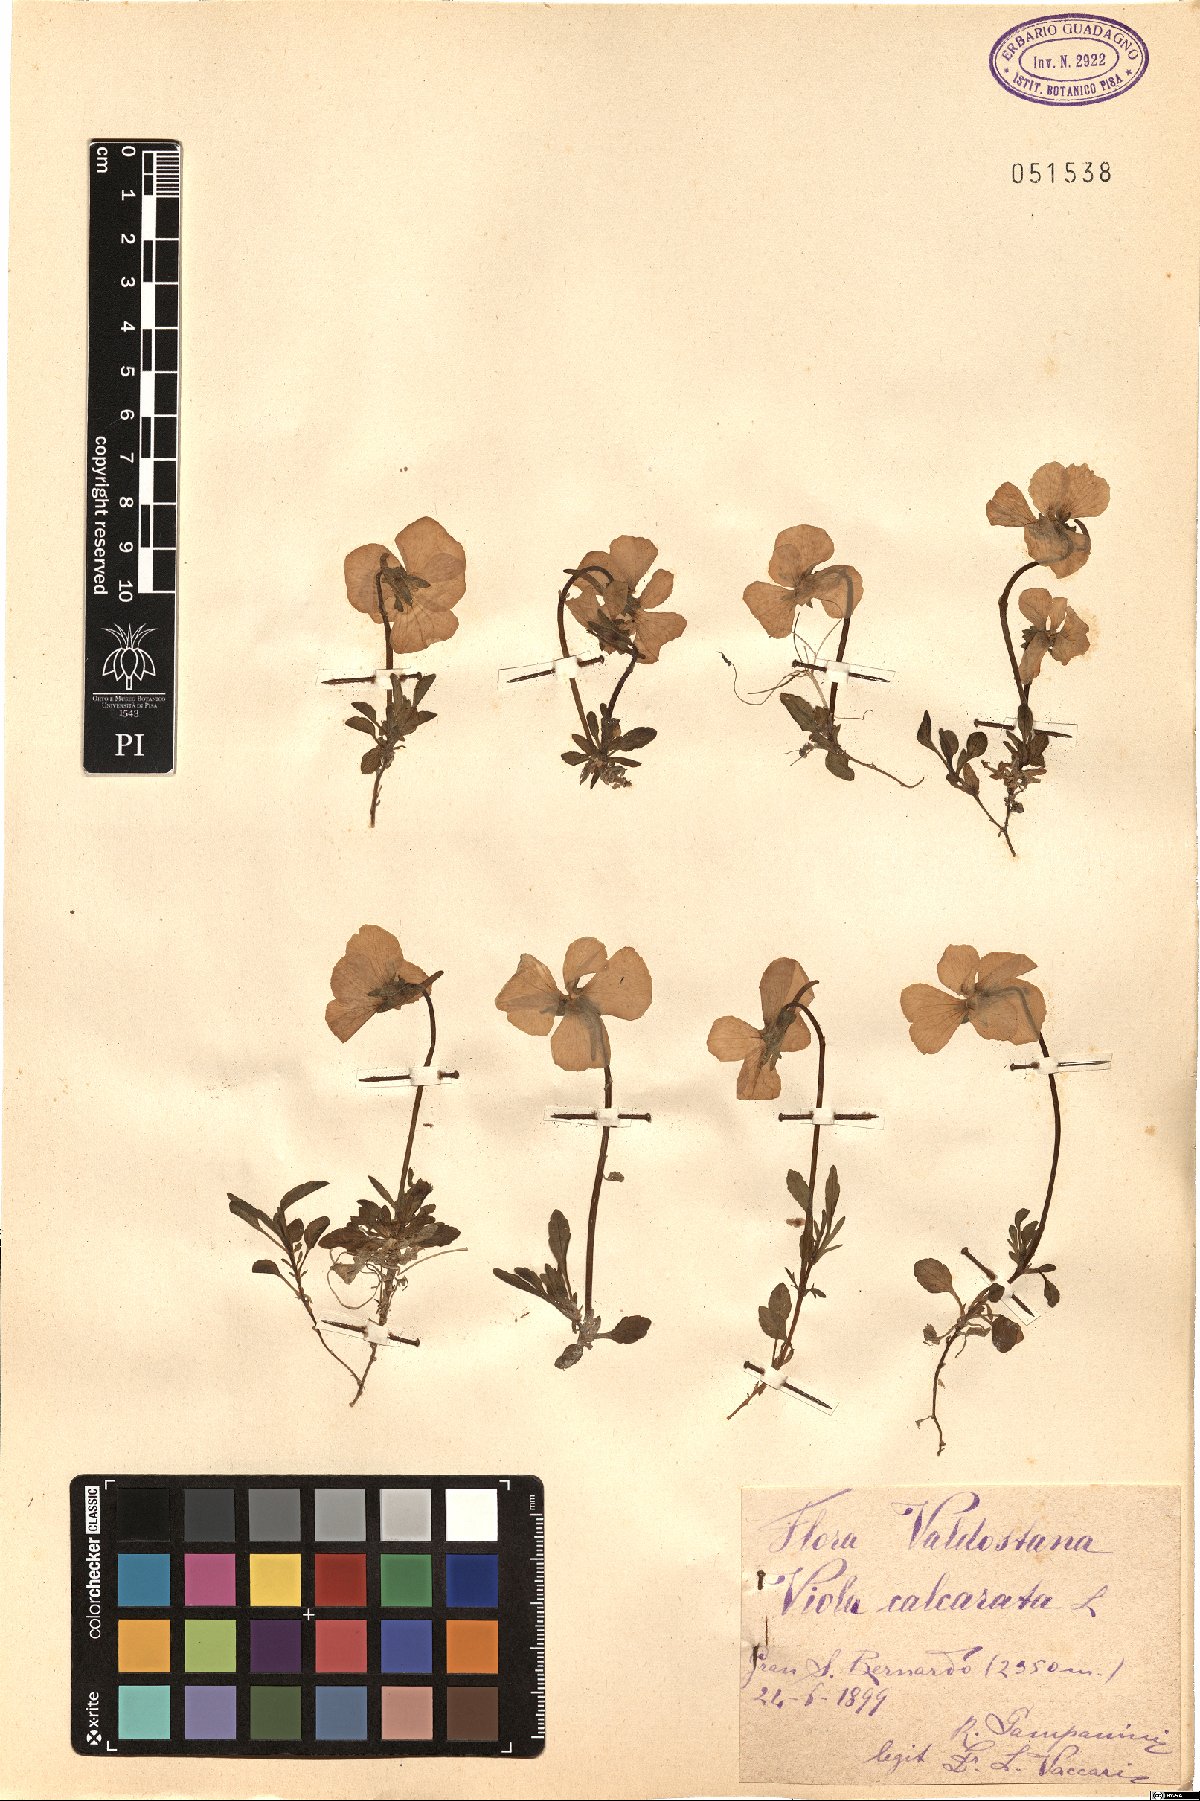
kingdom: Plantae
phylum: Tracheophyta
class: Magnoliopsida
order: Malpighiales
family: Violaceae
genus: Viola
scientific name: Viola calcarata
